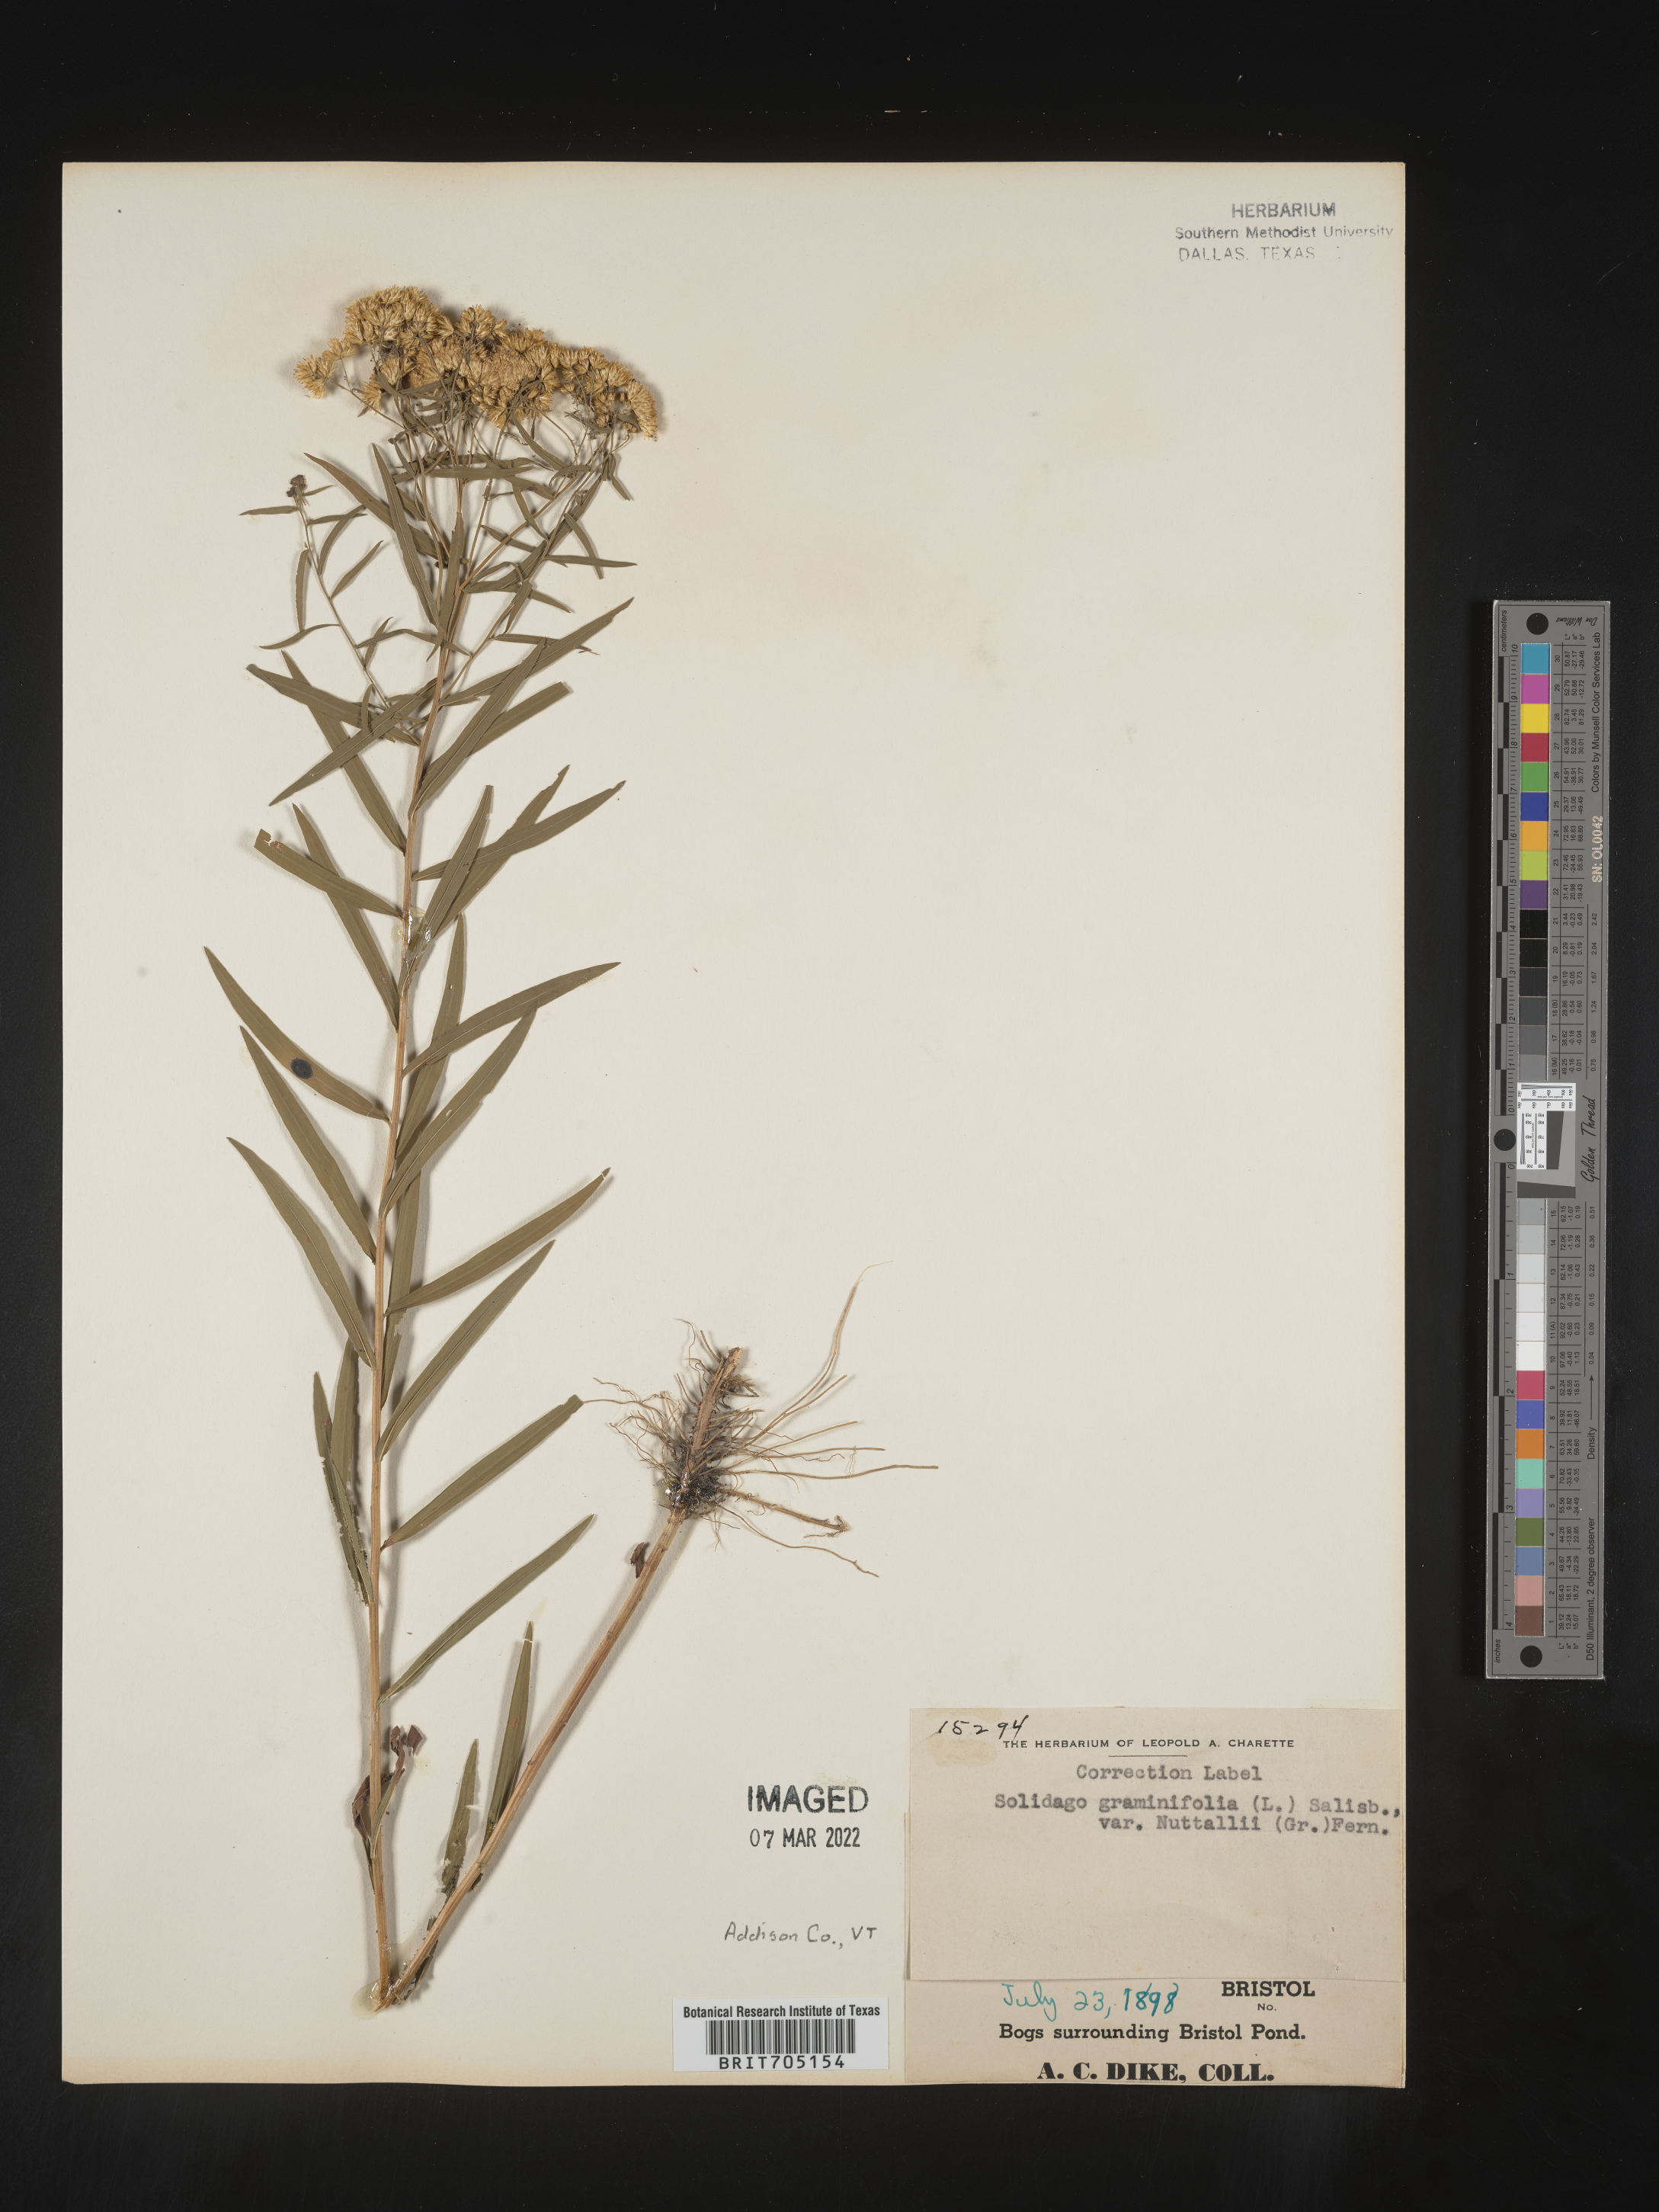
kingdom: Plantae
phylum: Tracheophyta
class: Magnoliopsida
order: Asterales
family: Asteraceae
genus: Euthamia
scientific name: Euthamia graminifolia
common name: Common goldentop
